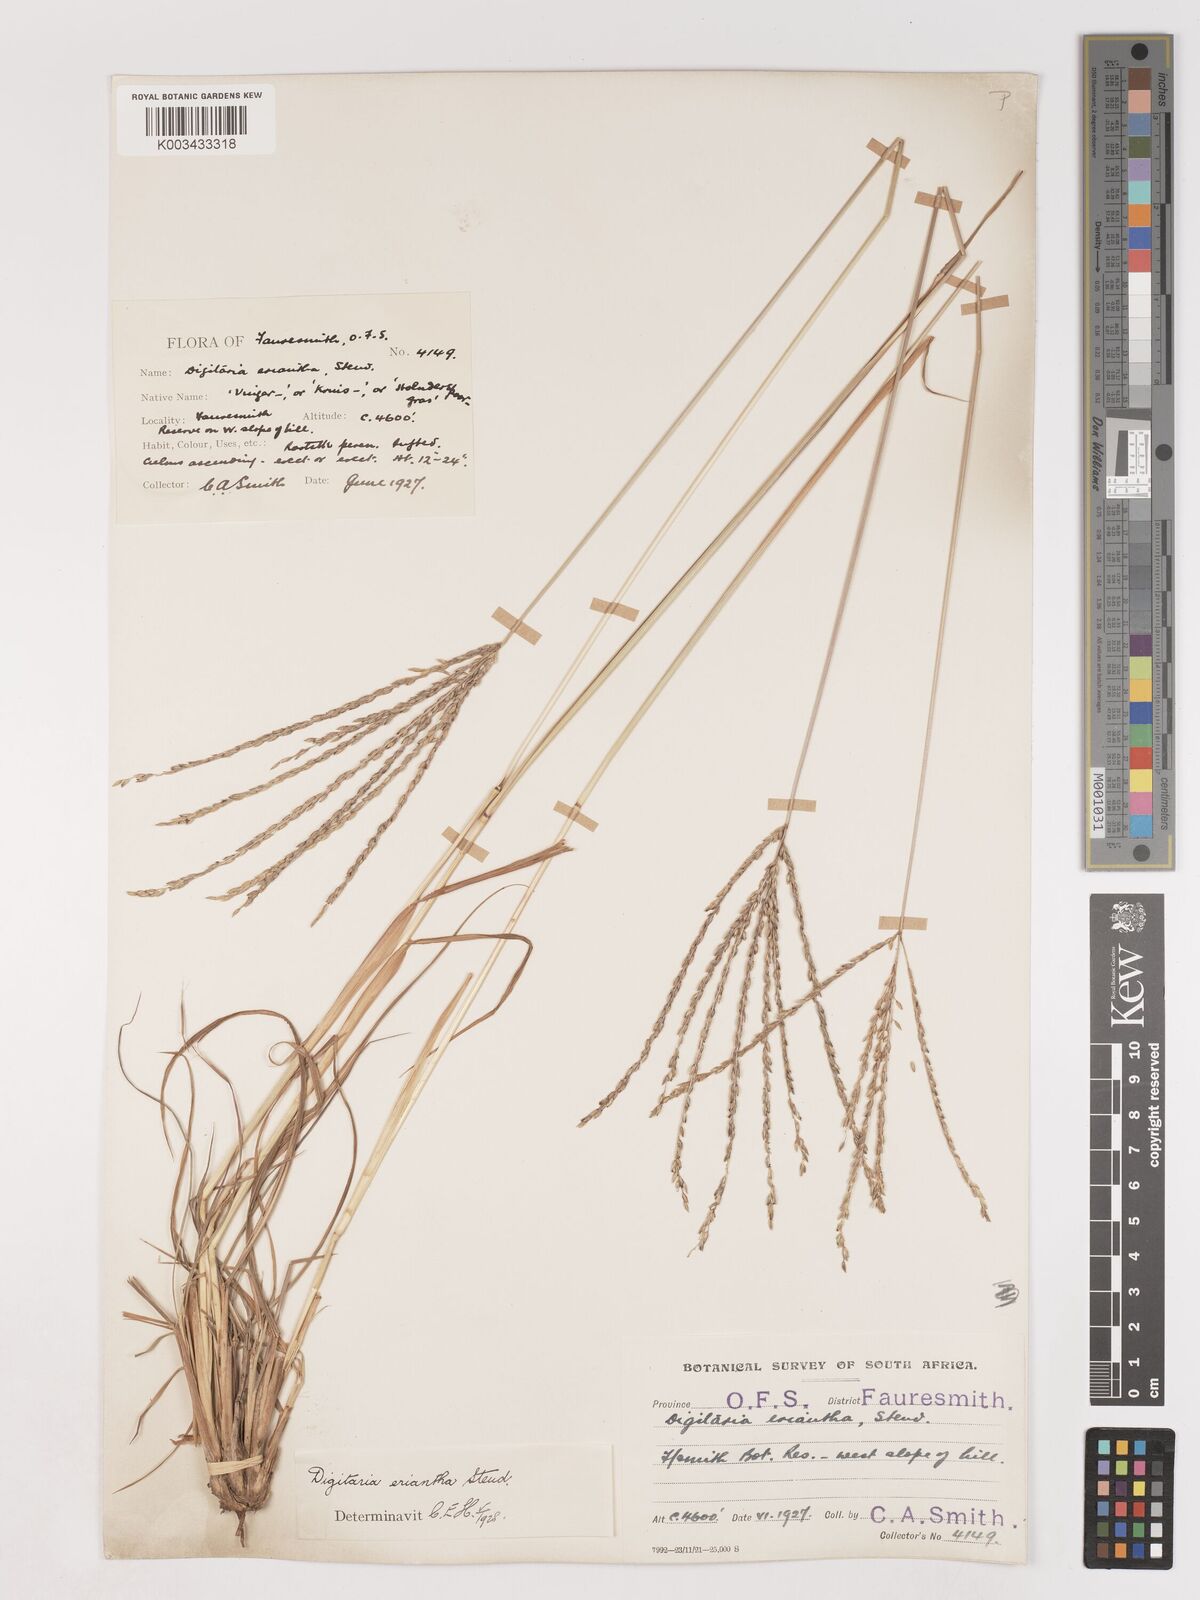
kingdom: Plantae
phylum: Tracheophyta
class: Liliopsida
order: Poales
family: Poaceae
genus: Digitaria
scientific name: Digitaria eriantha
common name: Digitgrass
